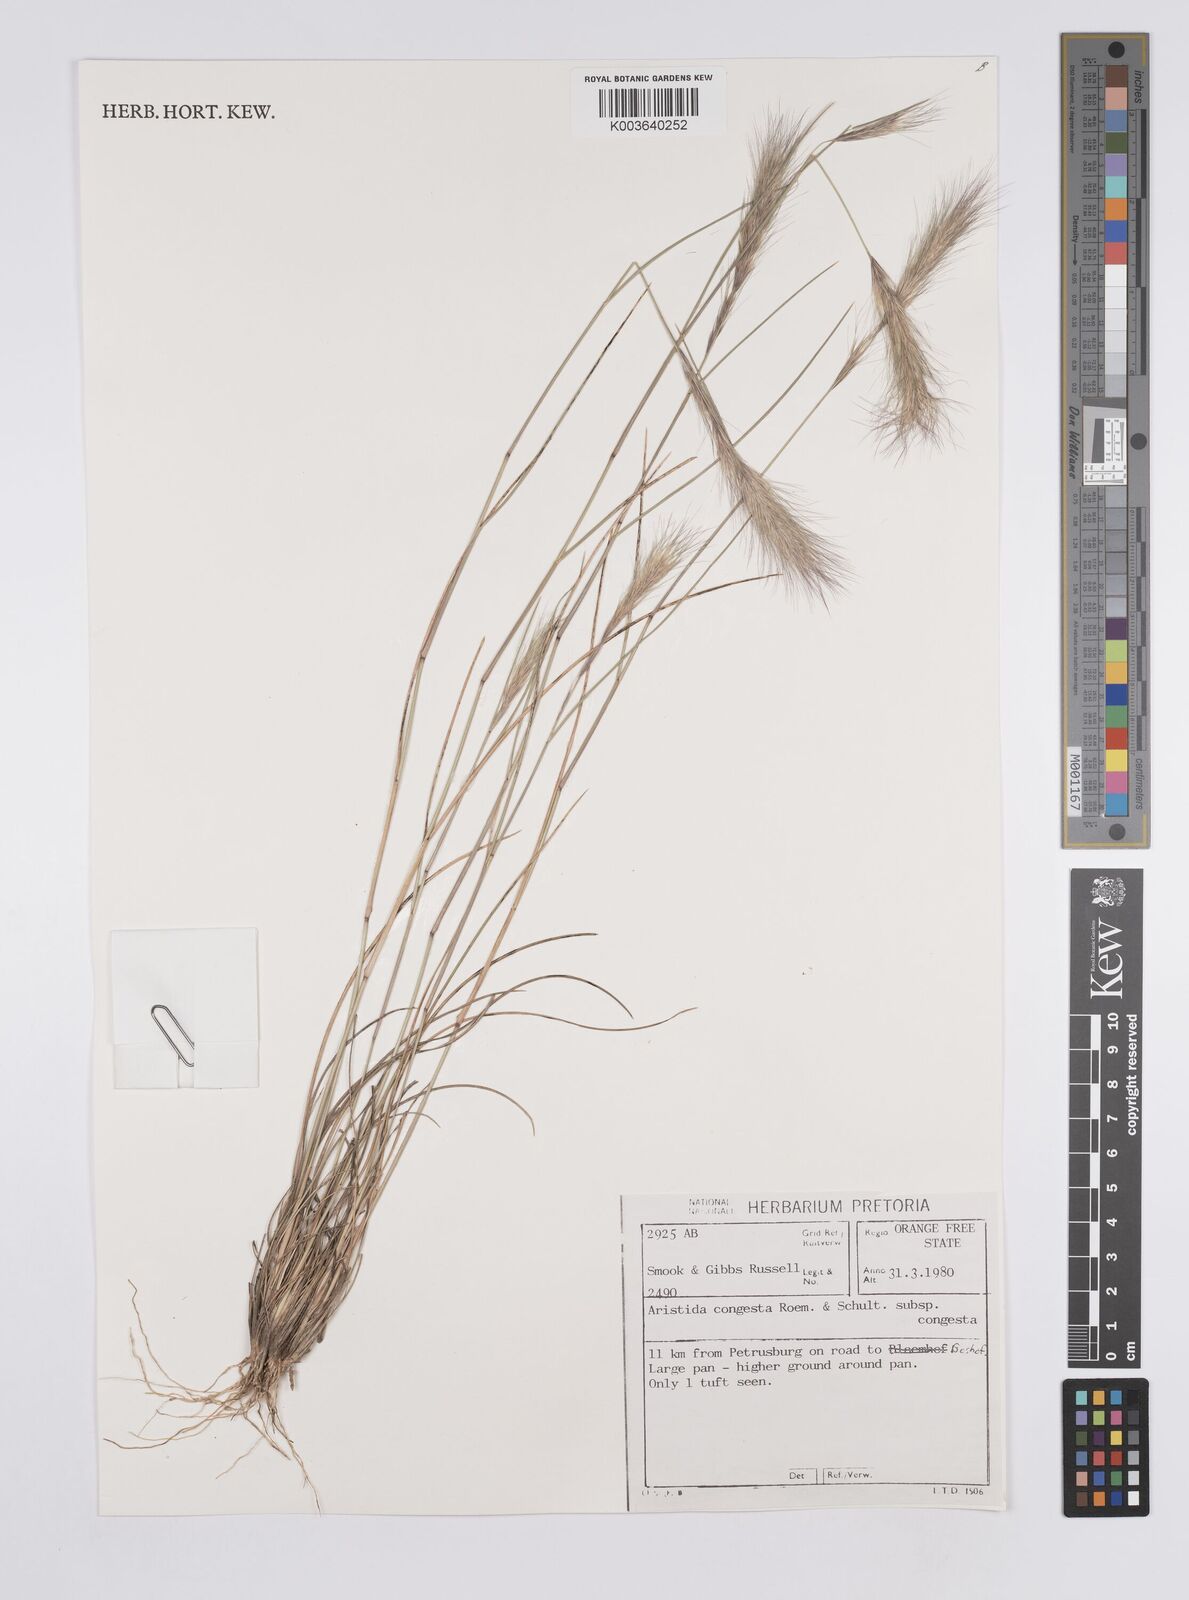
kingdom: Plantae
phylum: Tracheophyta
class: Liliopsida
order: Poales
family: Poaceae
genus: Aristida
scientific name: Aristida congesta
